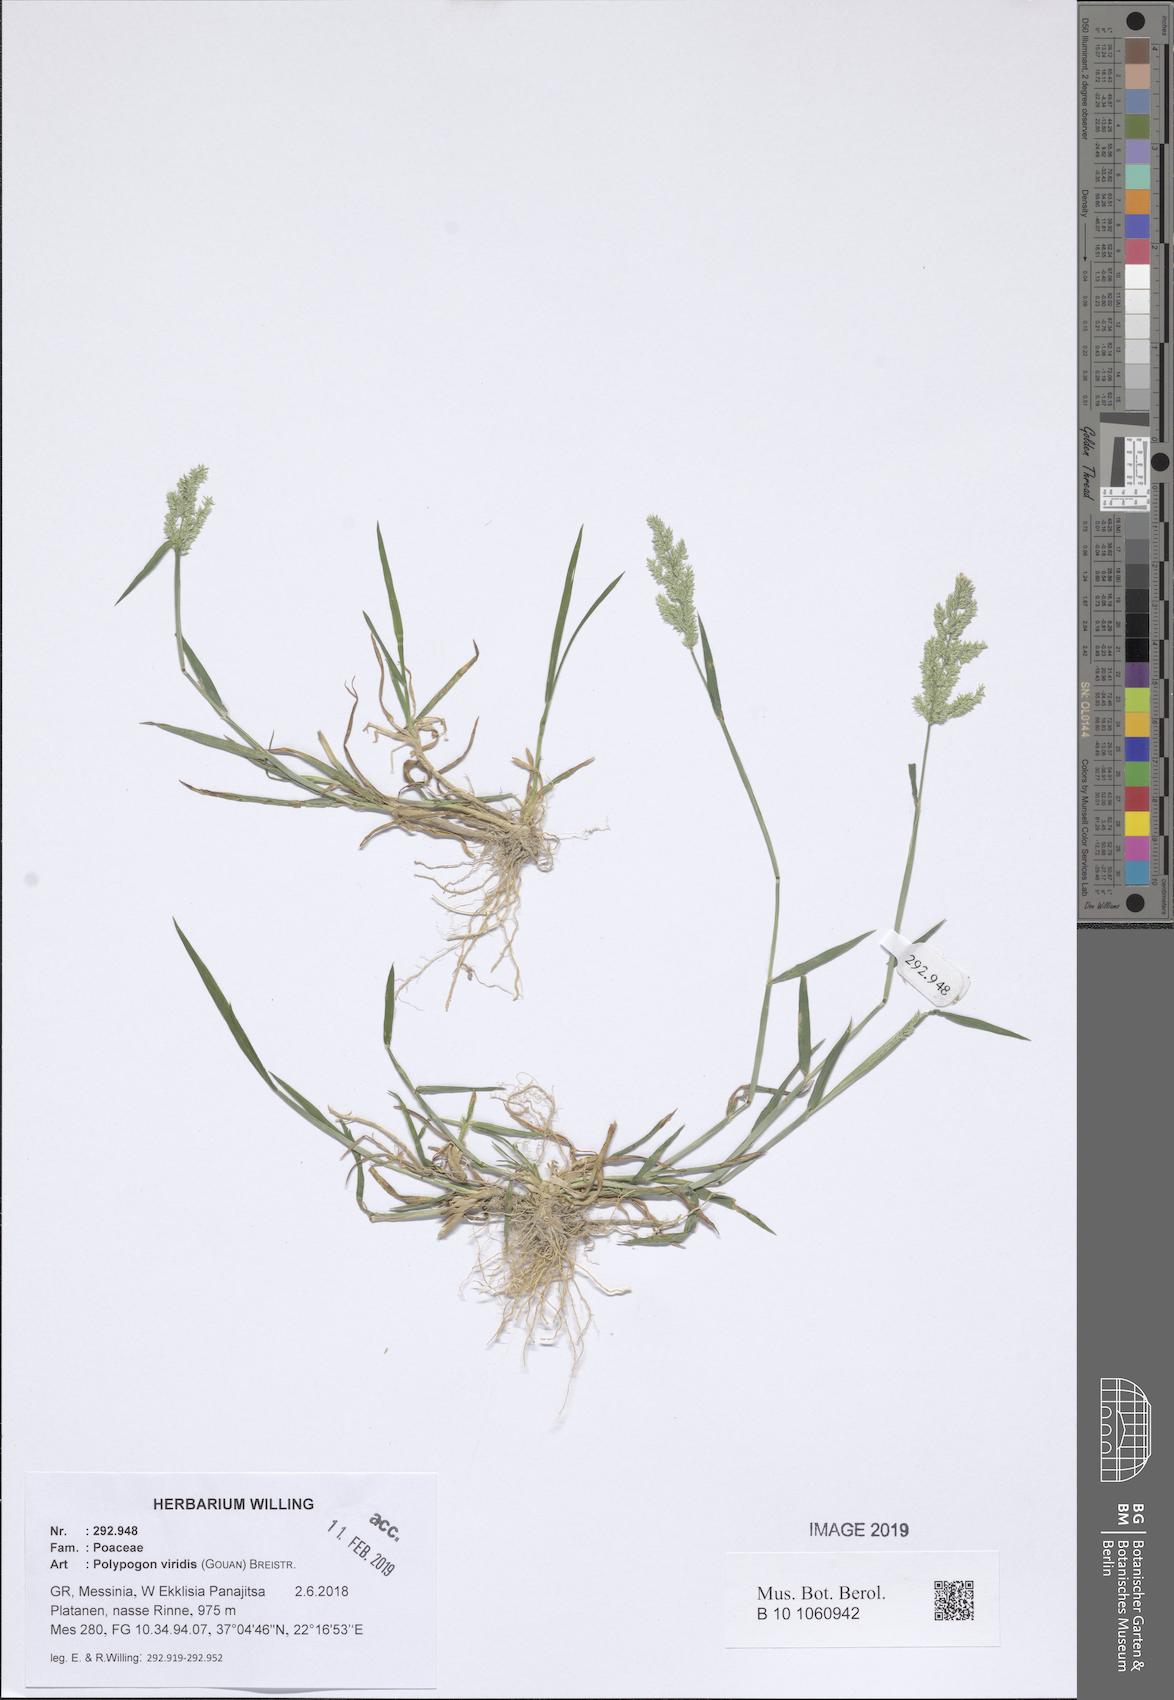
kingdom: Plantae
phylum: Tracheophyta
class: Liliopsida
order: Poales
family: Poaceae
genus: Polypogon
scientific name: Polypogon viridis
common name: Water bent
